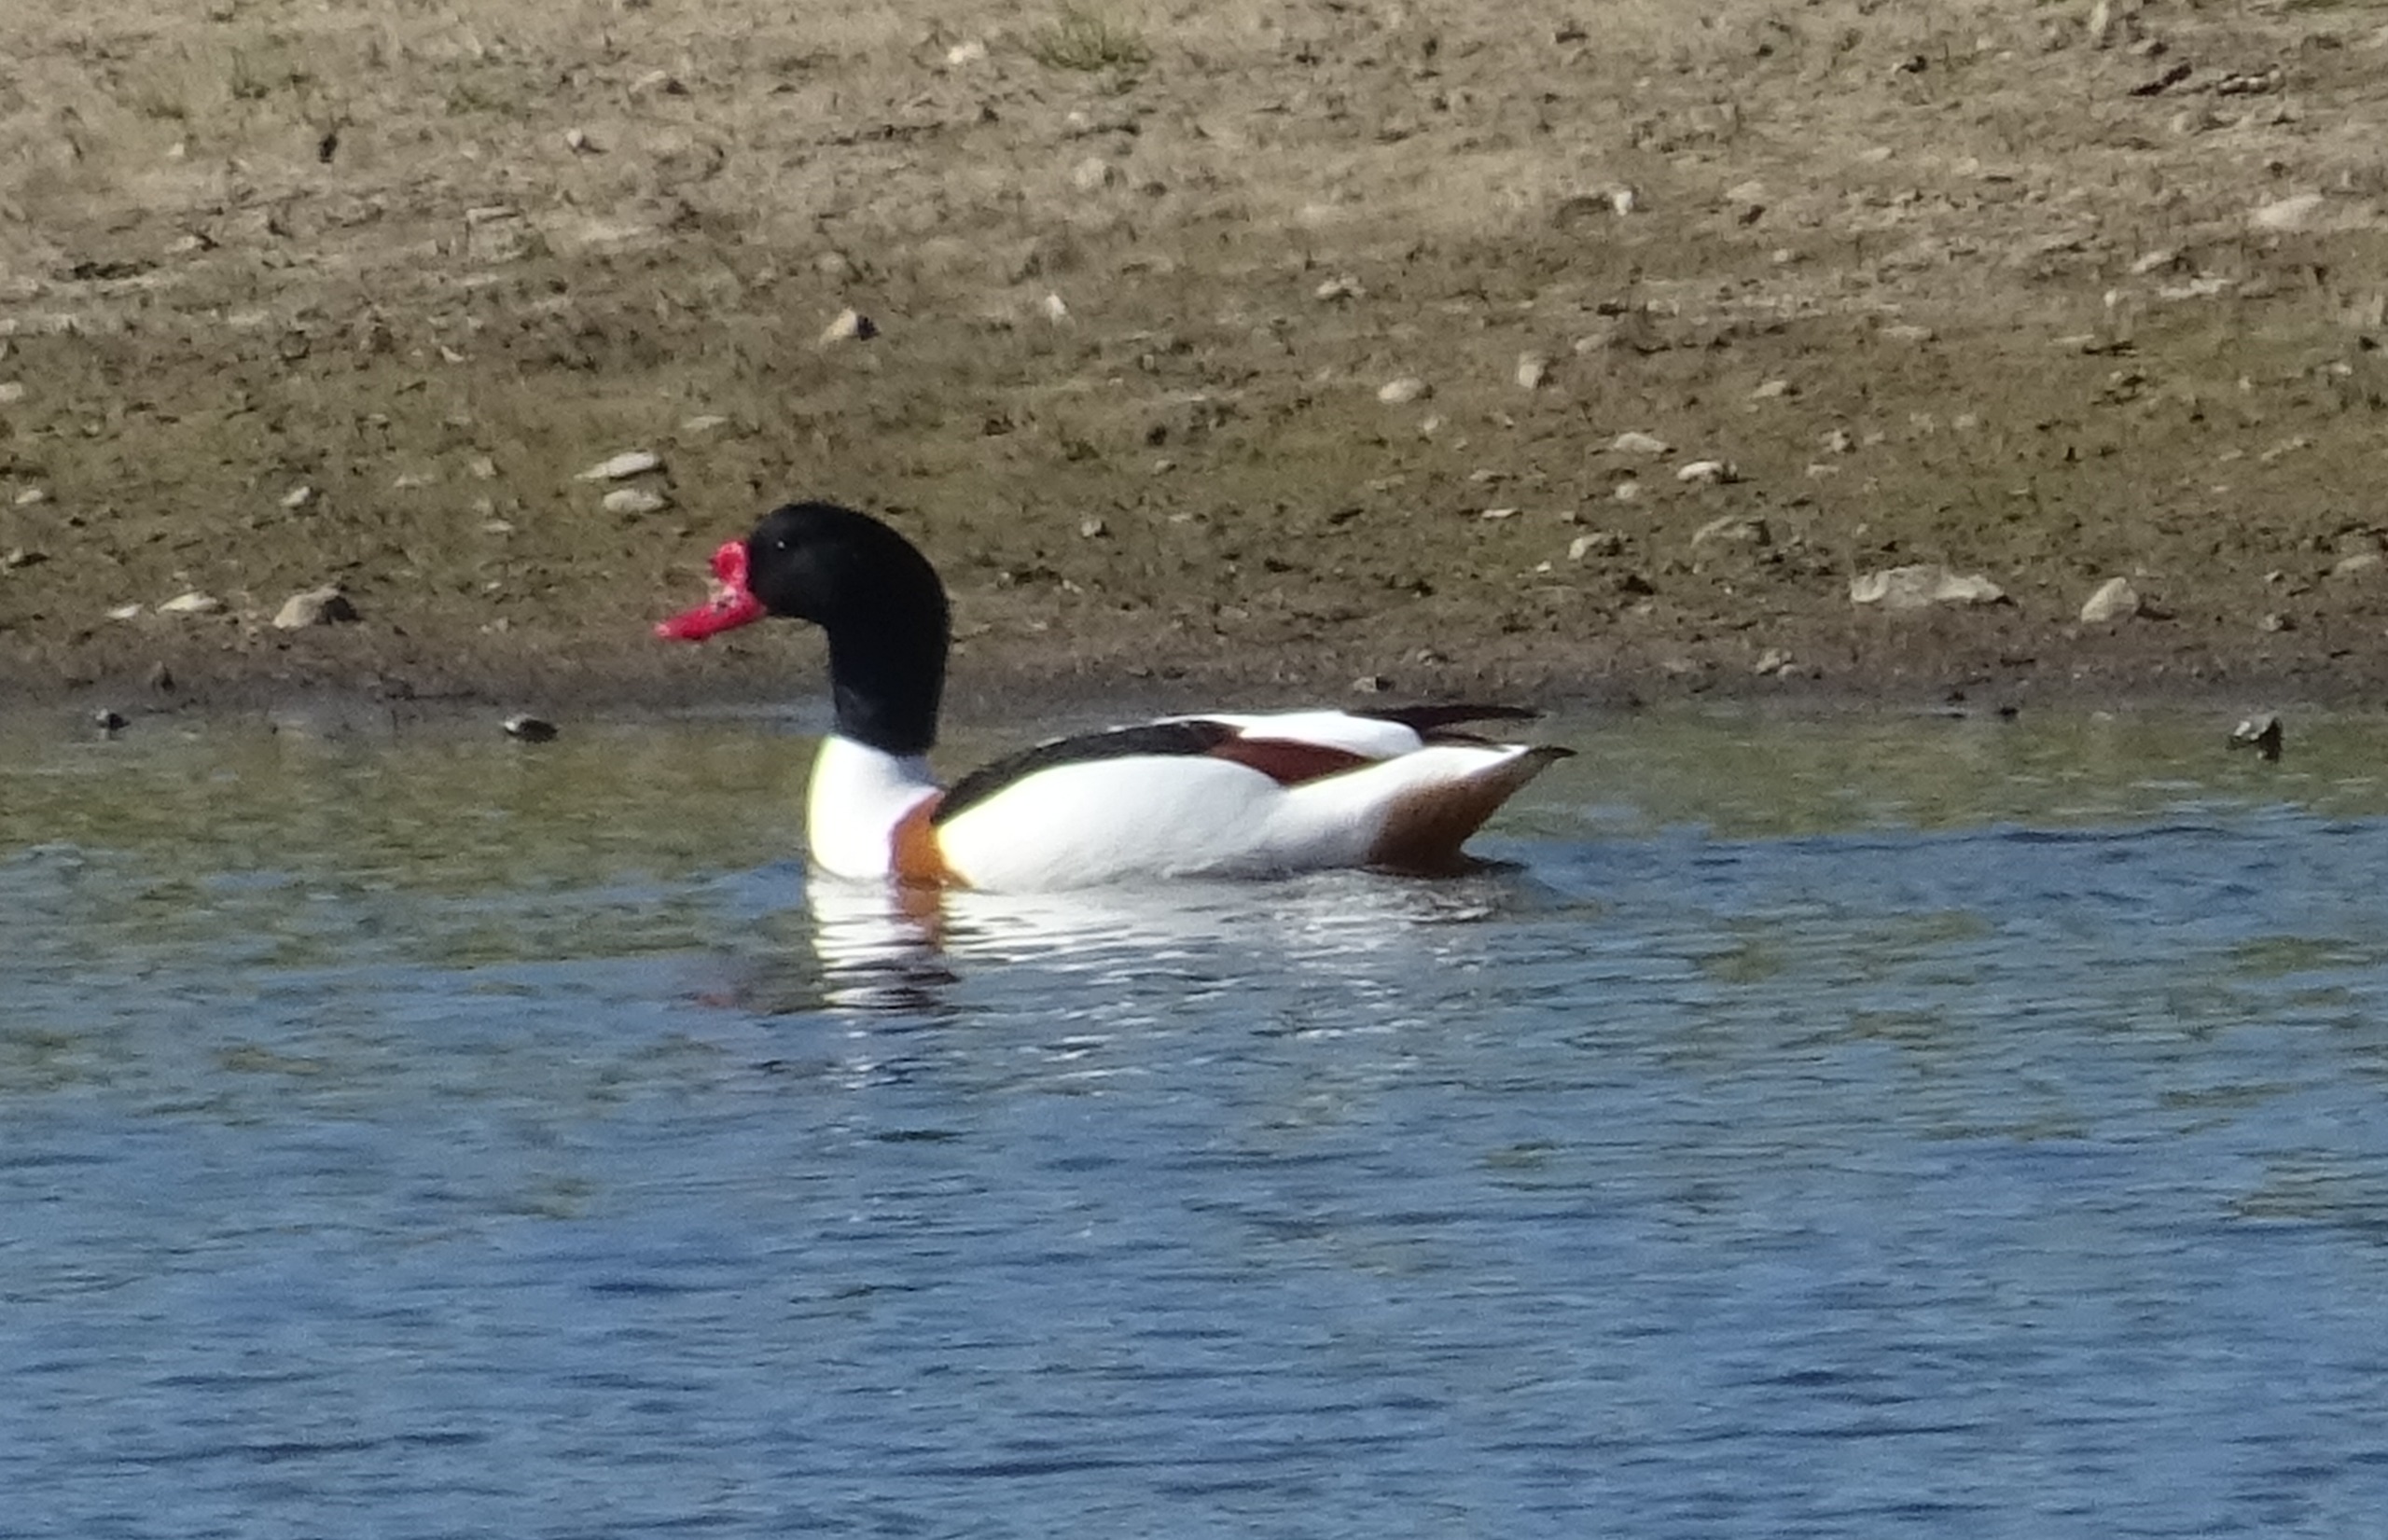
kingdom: Animalia
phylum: Chordata
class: Aves
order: Anseriformes
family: Anatidae
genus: Tadorna
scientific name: Tadorna tadorna
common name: Gravand
